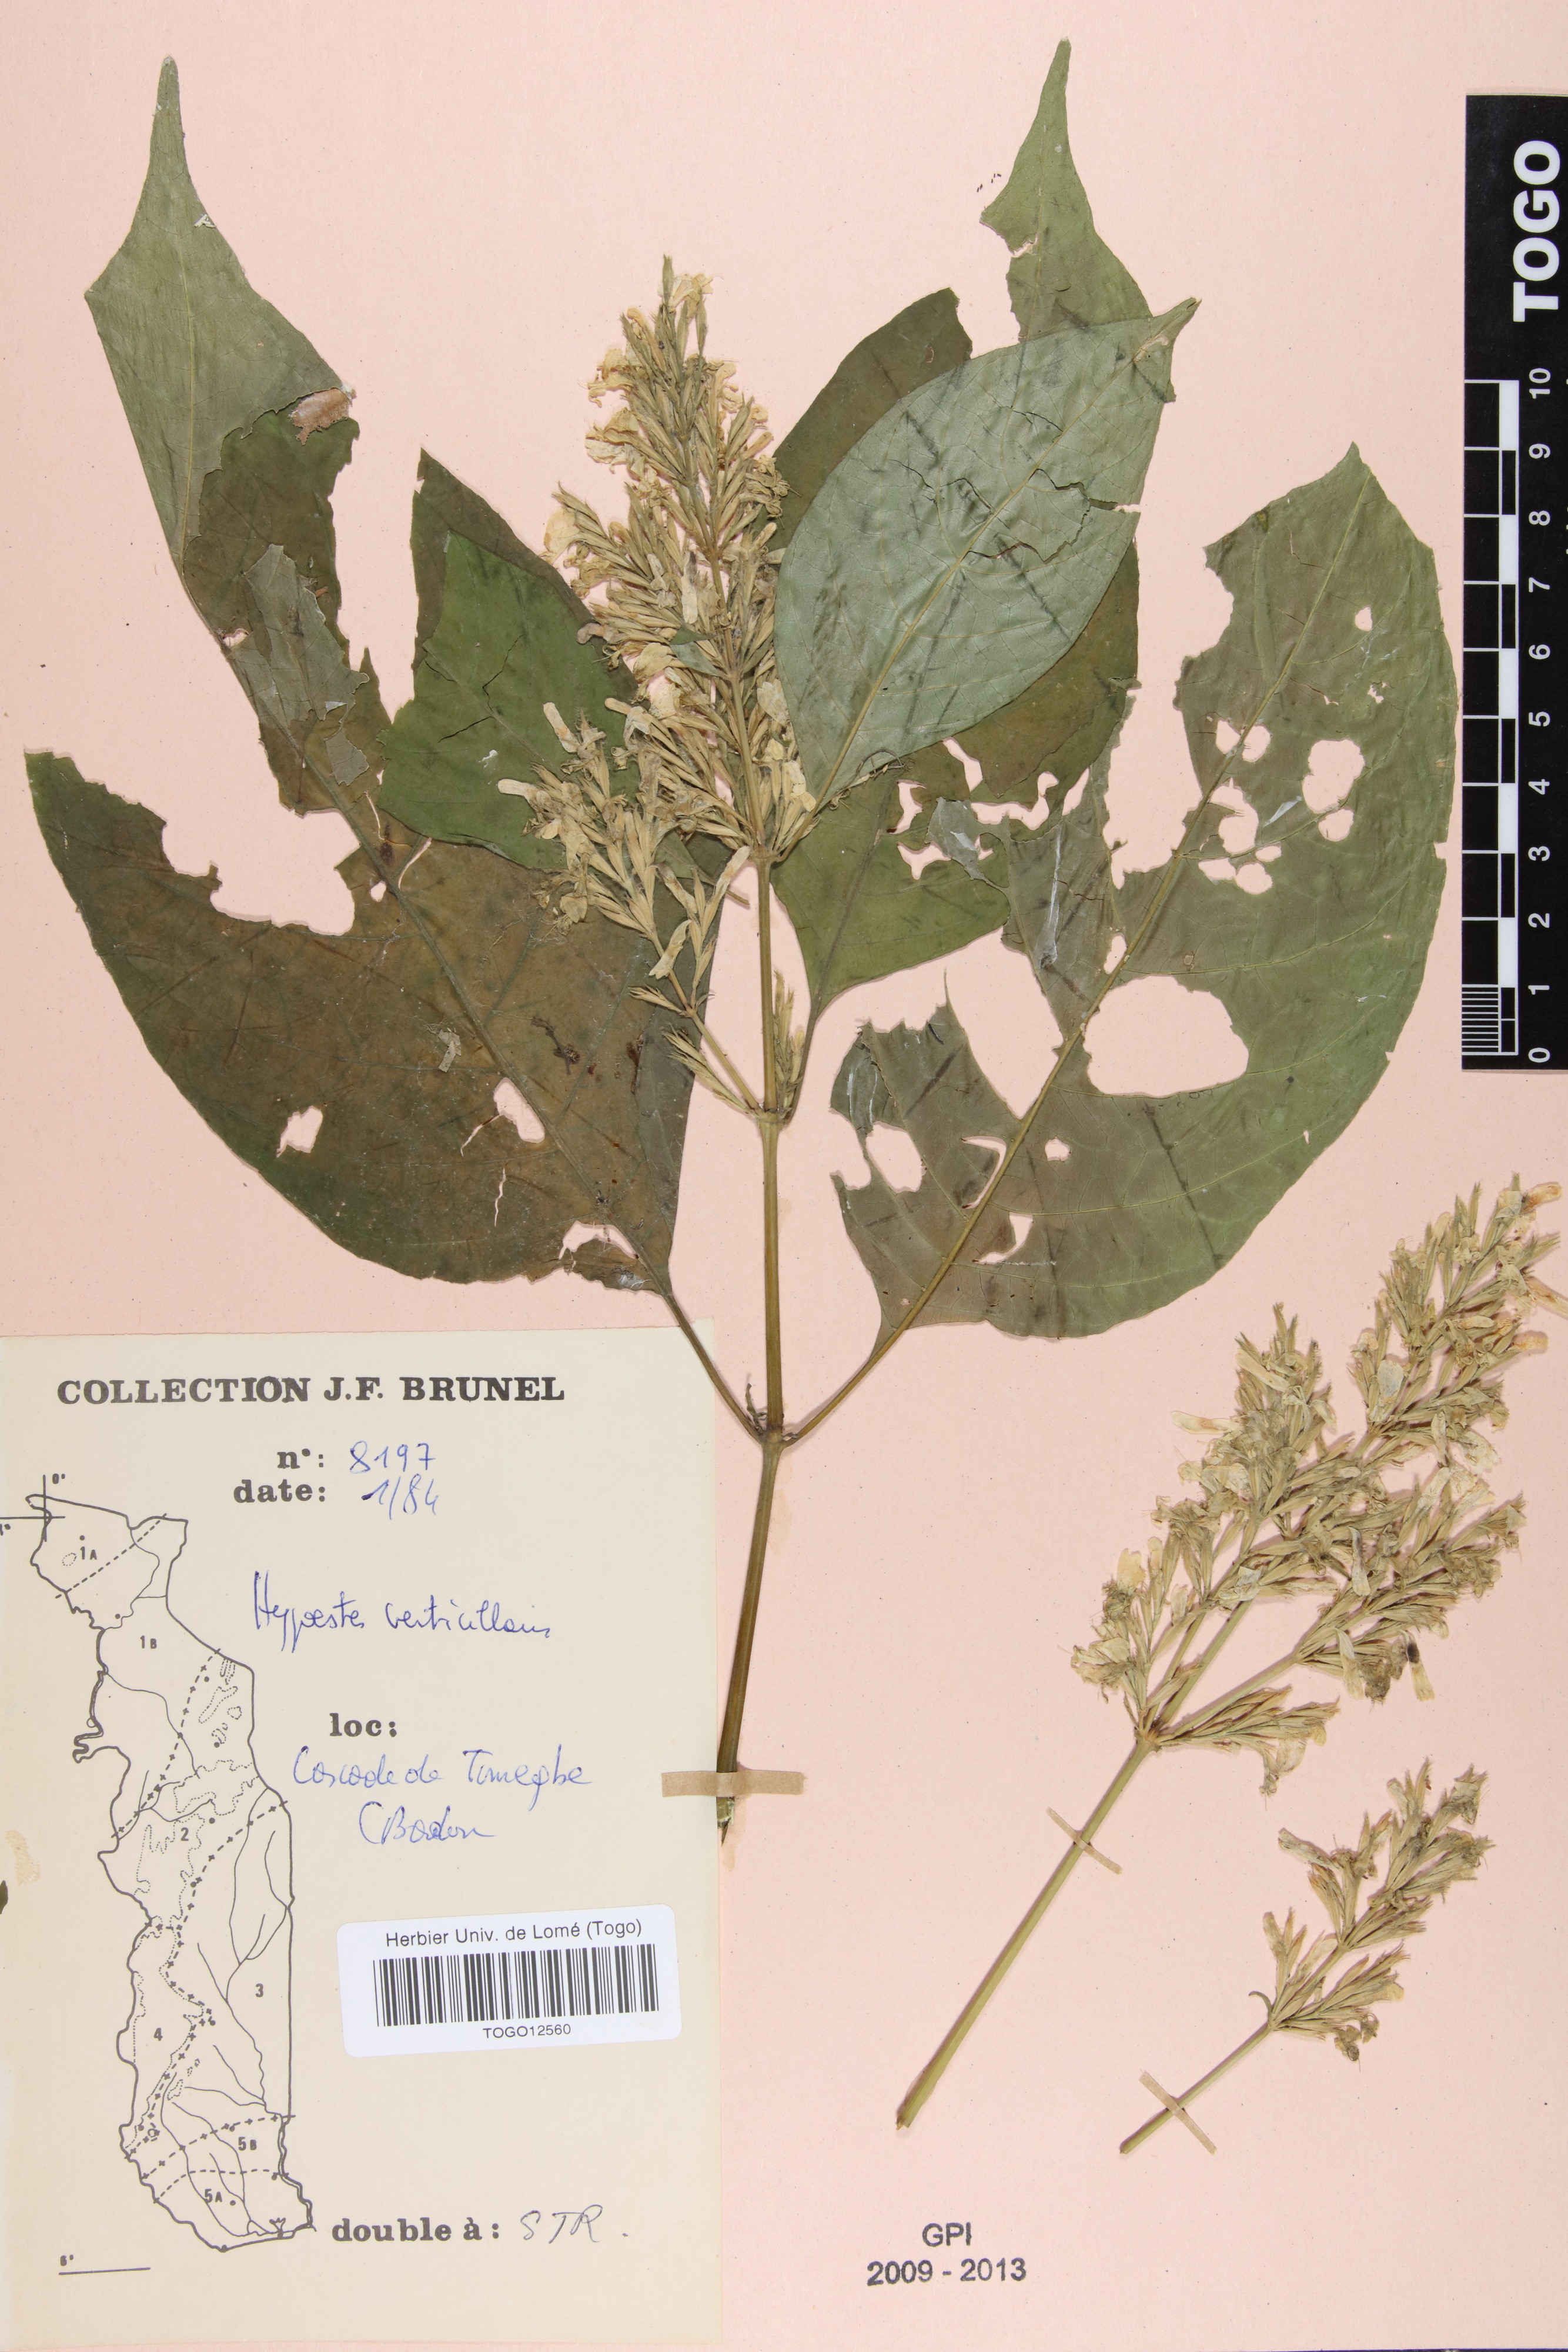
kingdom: Plantae
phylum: Tracheophyta
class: Magnoliopsida
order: Lamiales
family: Acanthaceae
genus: Hypoestes
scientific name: Hypoestes aristata
